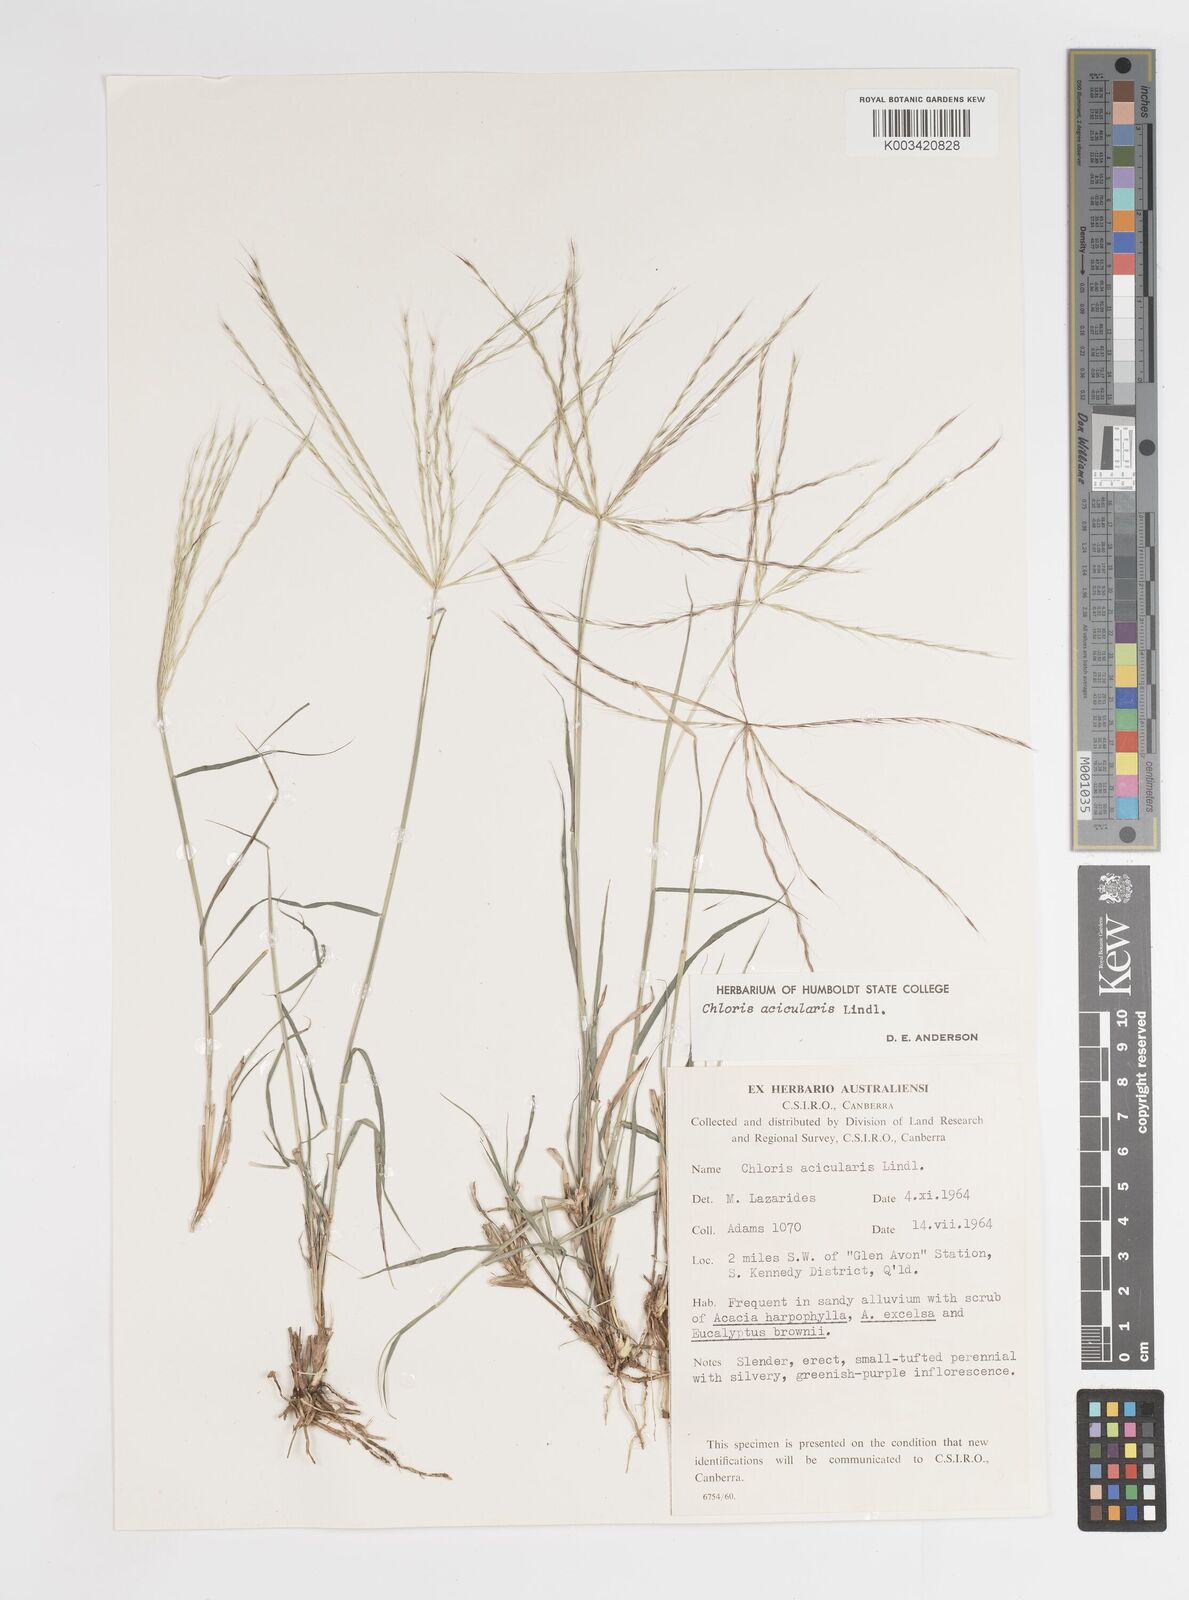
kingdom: Plantae
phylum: Tracheophyta
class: Liliopsida
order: Poales
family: Poaceae
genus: Enteropogon
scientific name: Enteropogon acicularis
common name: Curly windmill grass
